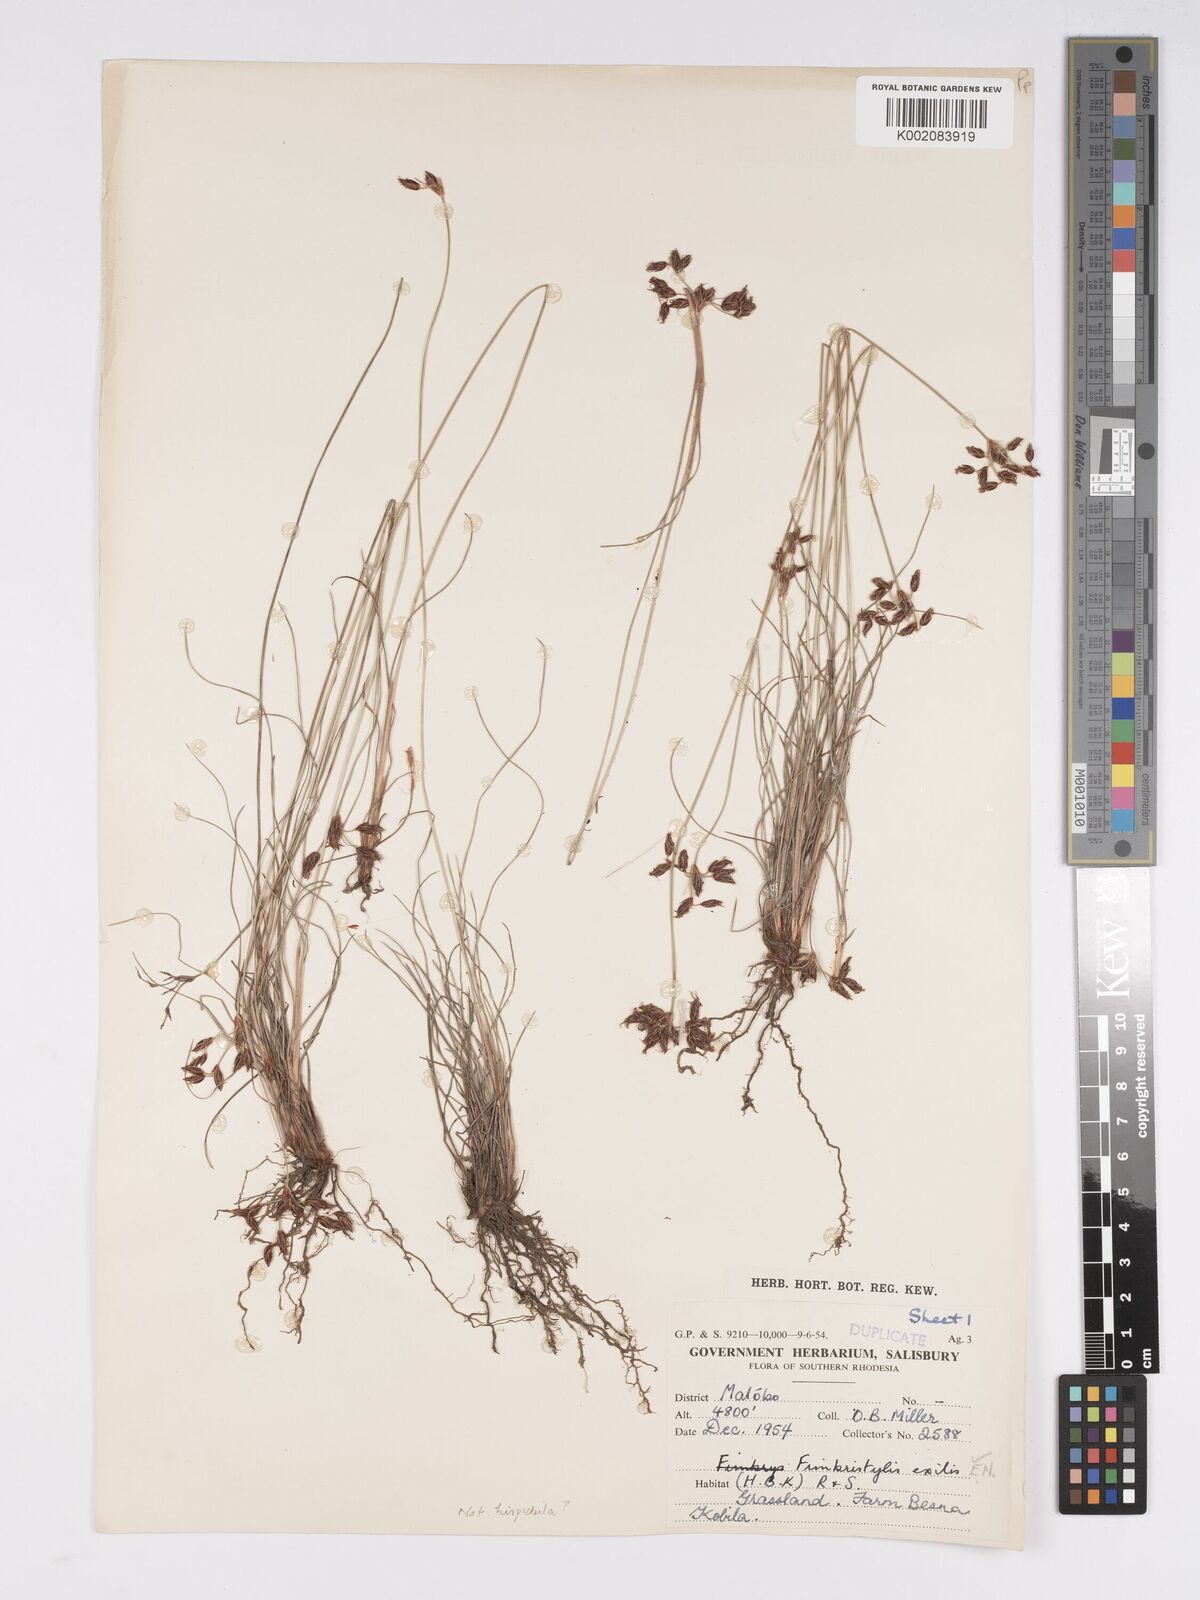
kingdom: Plantae
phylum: Tracheophyta
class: Liliopsida
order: Poales
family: Cyperaceae
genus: Bulbostylis
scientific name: Bulbostylis hispidula
